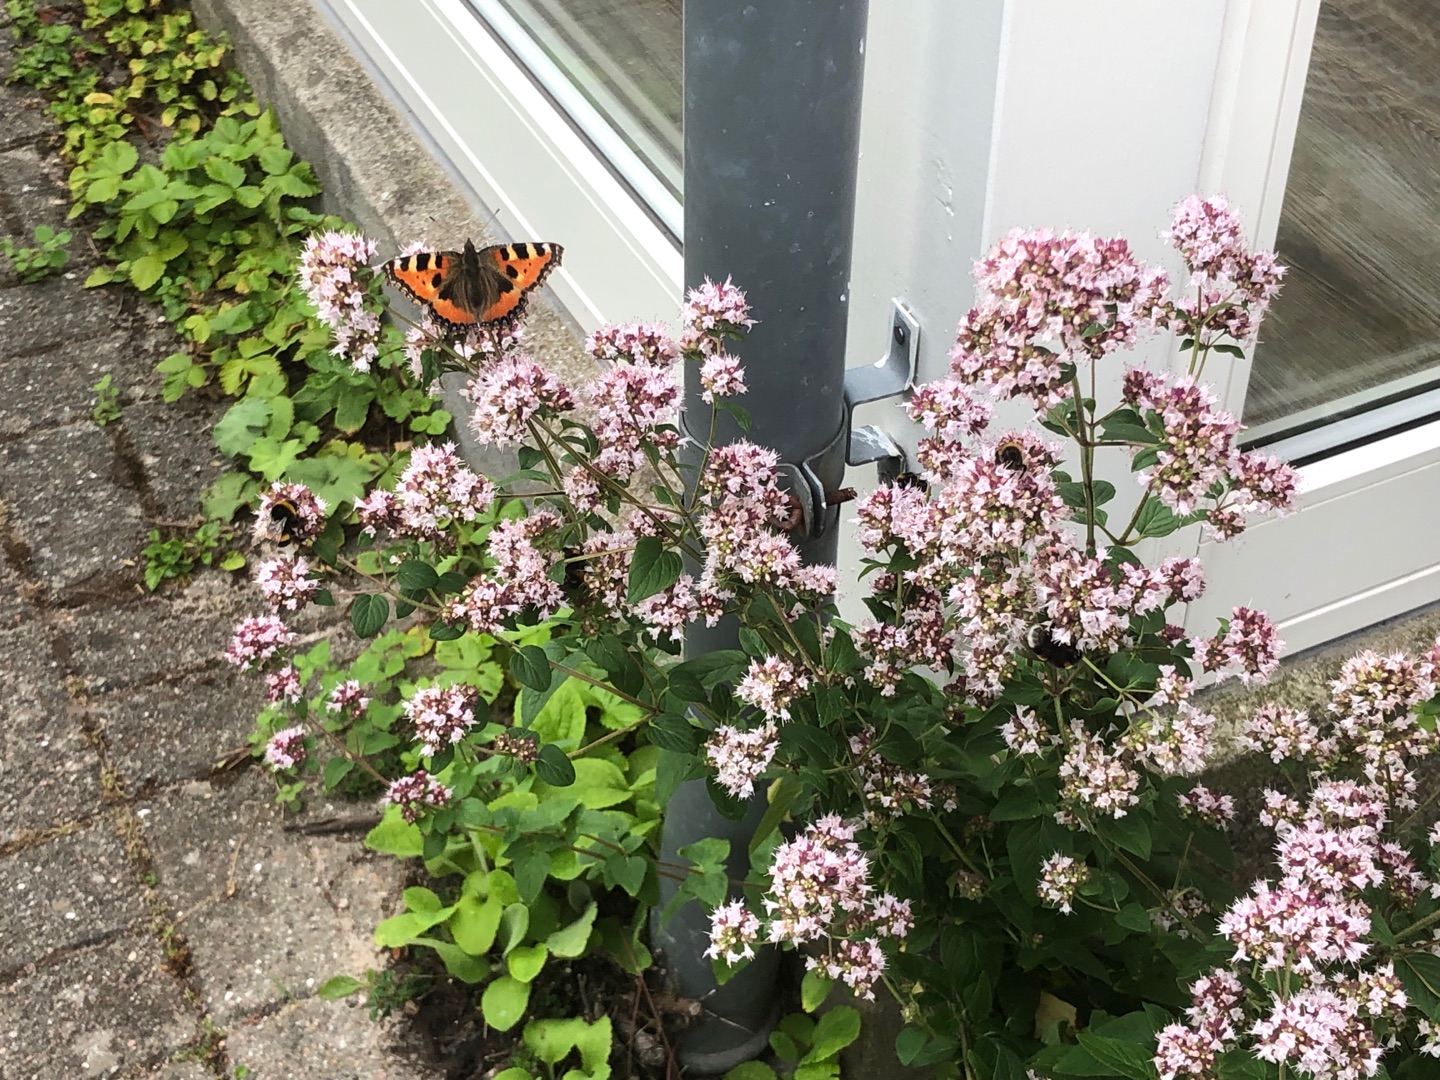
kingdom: Plantae
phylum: Tracheophyta
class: Magnoliopsida
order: Lamiales
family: Lamiaceae
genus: Origanum
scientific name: Origanum vulgare
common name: Merian
